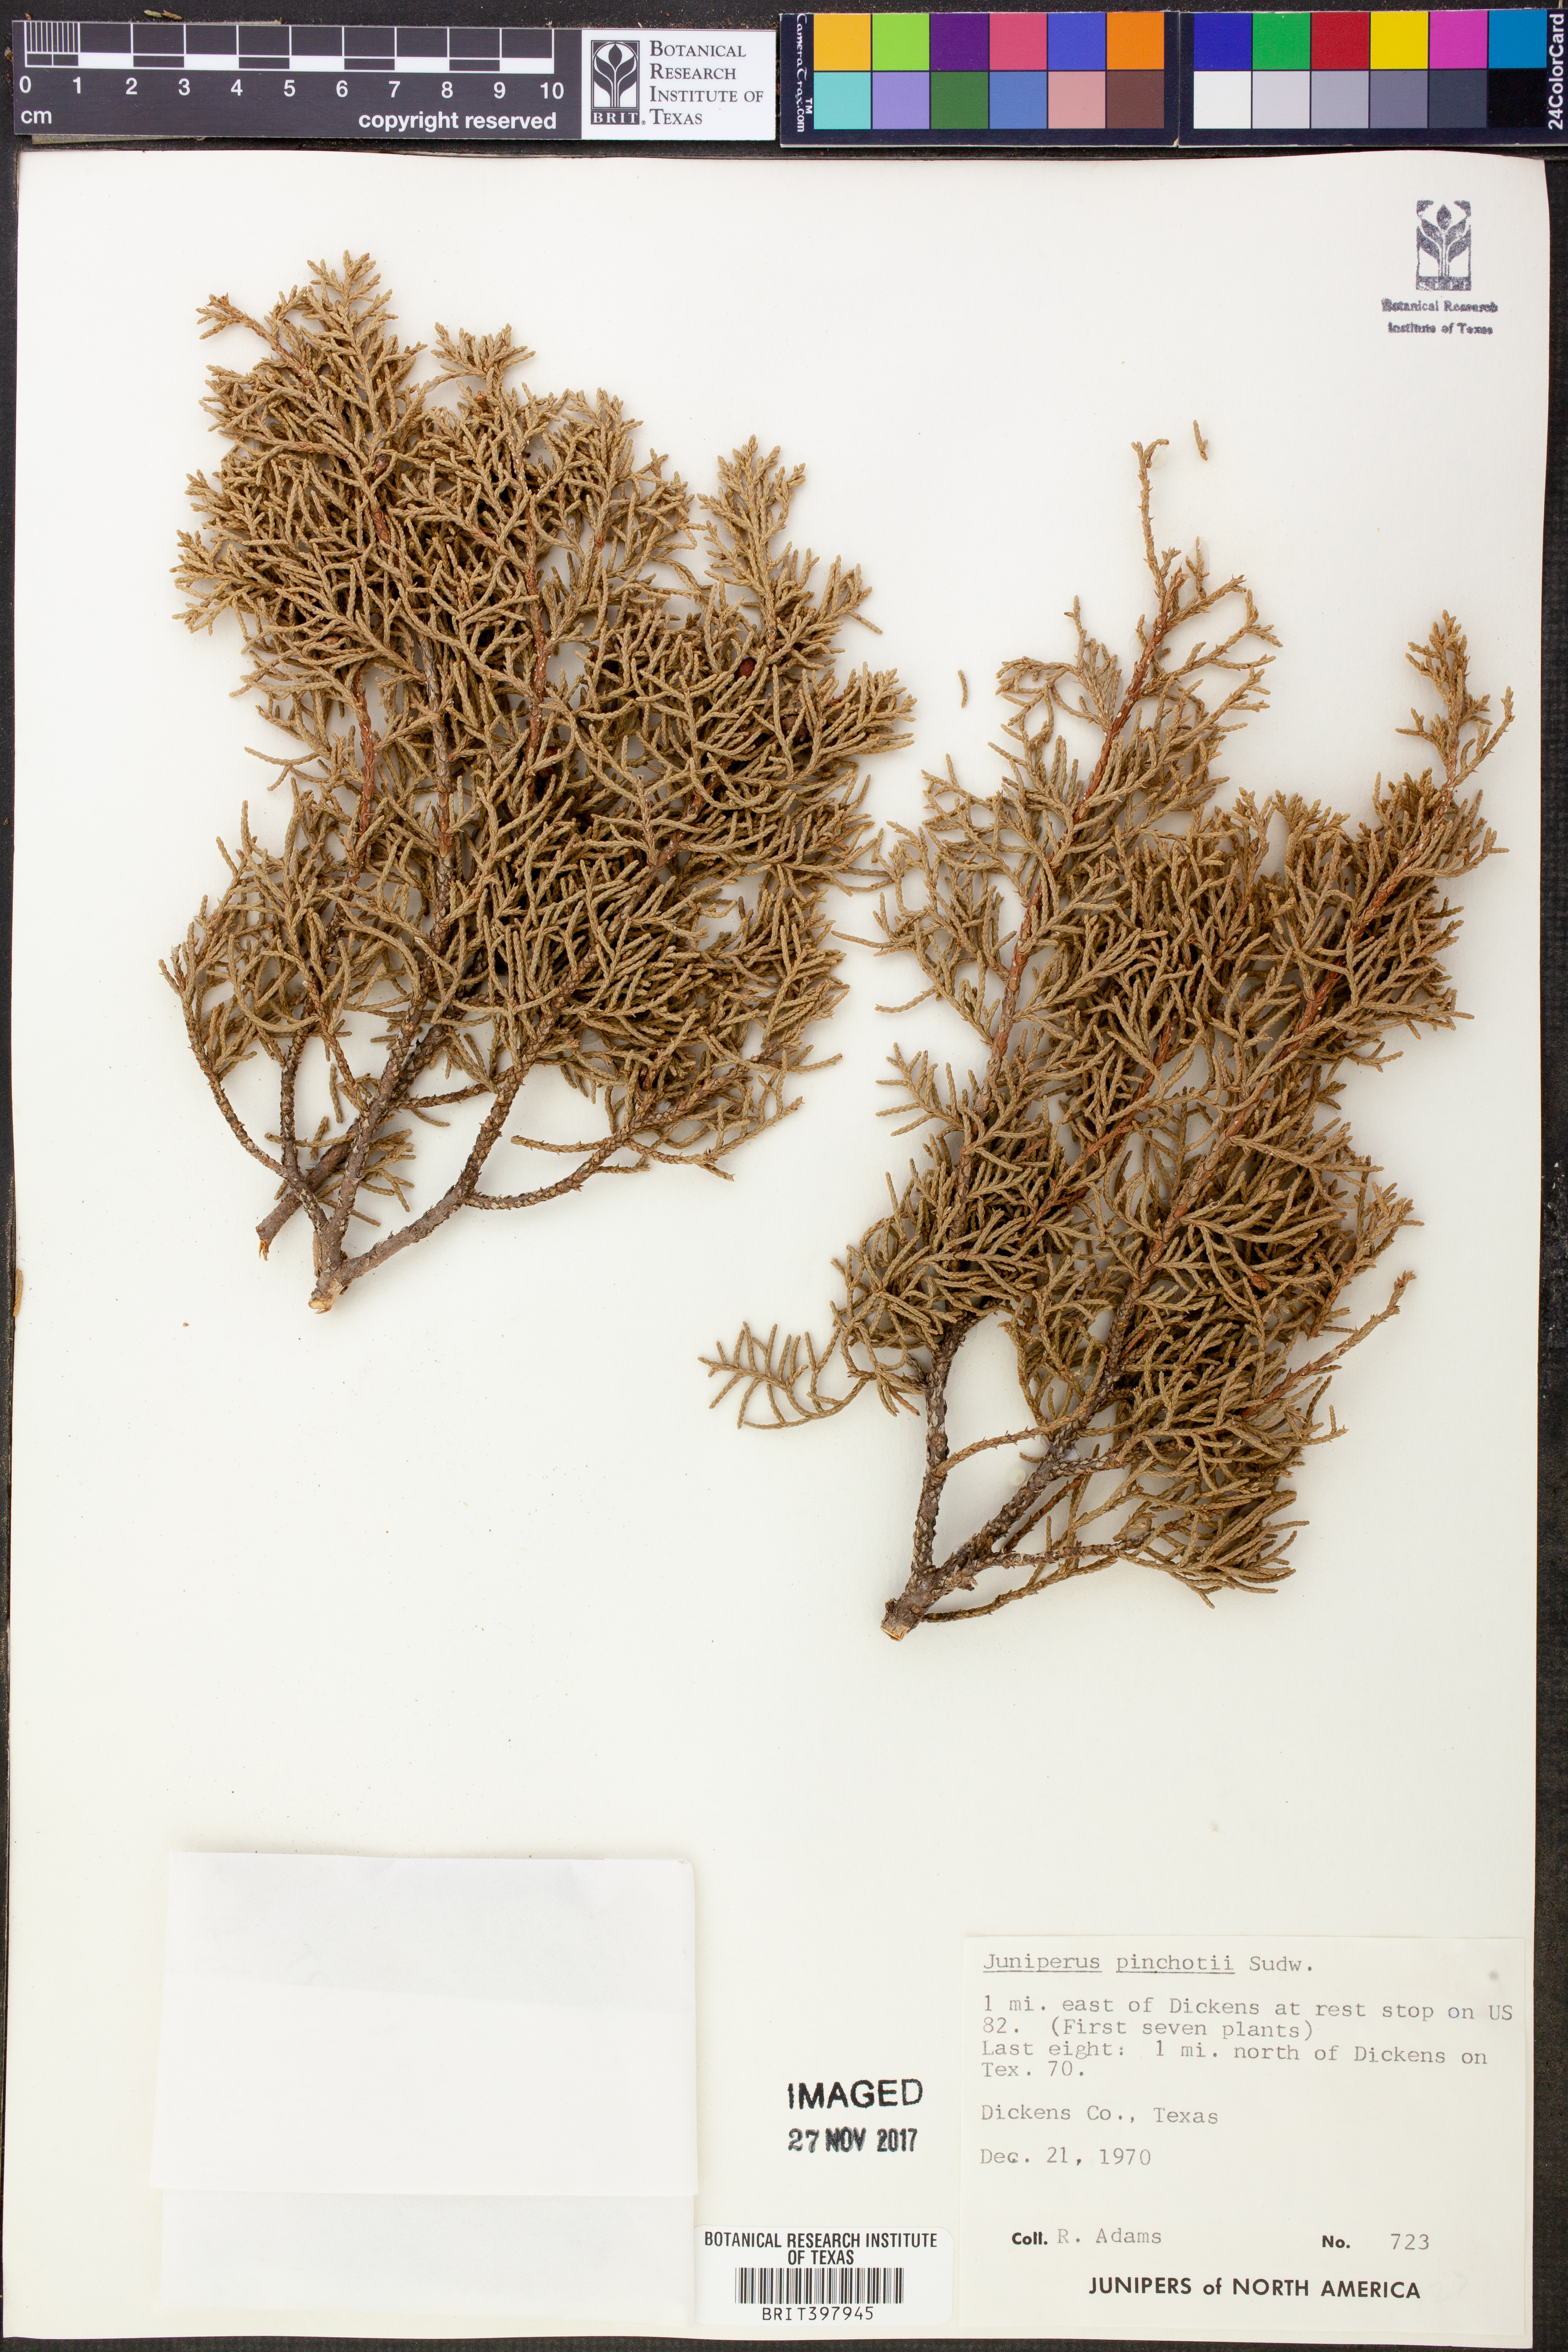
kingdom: Plantae
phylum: Tracheophyta
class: Pinopsida
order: Pinales
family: Cupressaceae
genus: Juniperus
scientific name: Juniperus pinchotii
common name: Pinchot juniper
